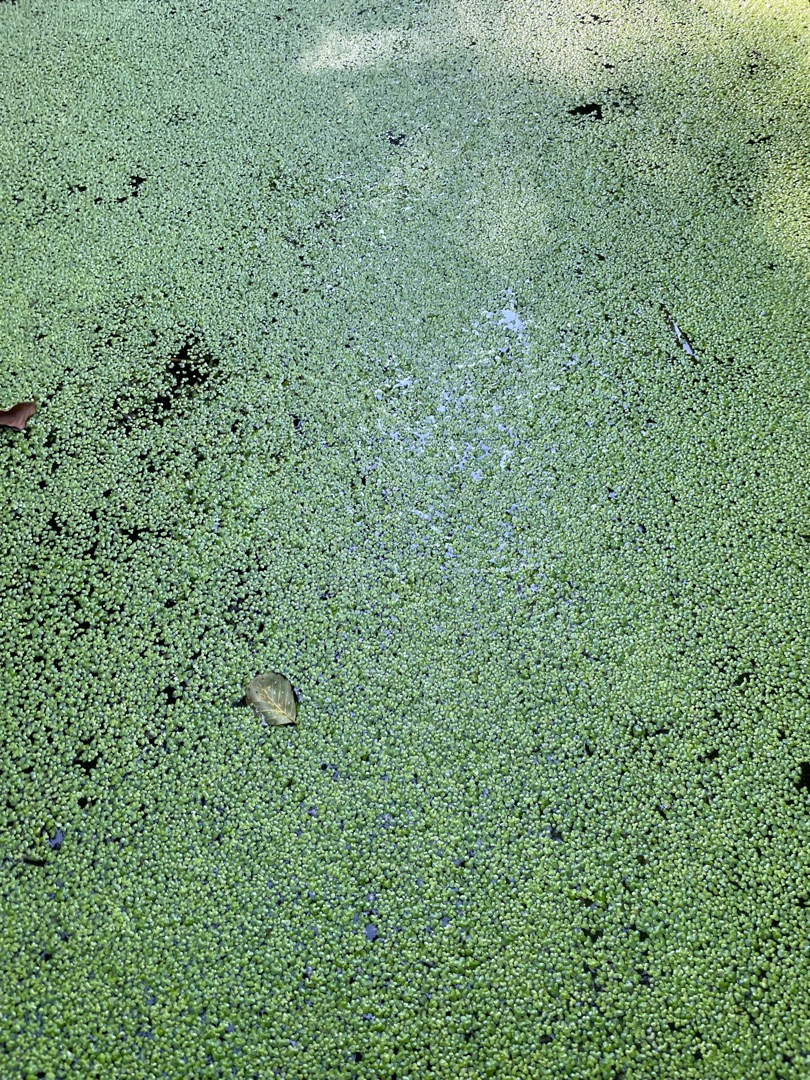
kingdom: Plantae
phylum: Tracheophyta
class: Liliopsida
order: Alismatales
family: Araceae
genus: Lemna
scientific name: Lemna
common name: Andemad (Lemna-slægten)
